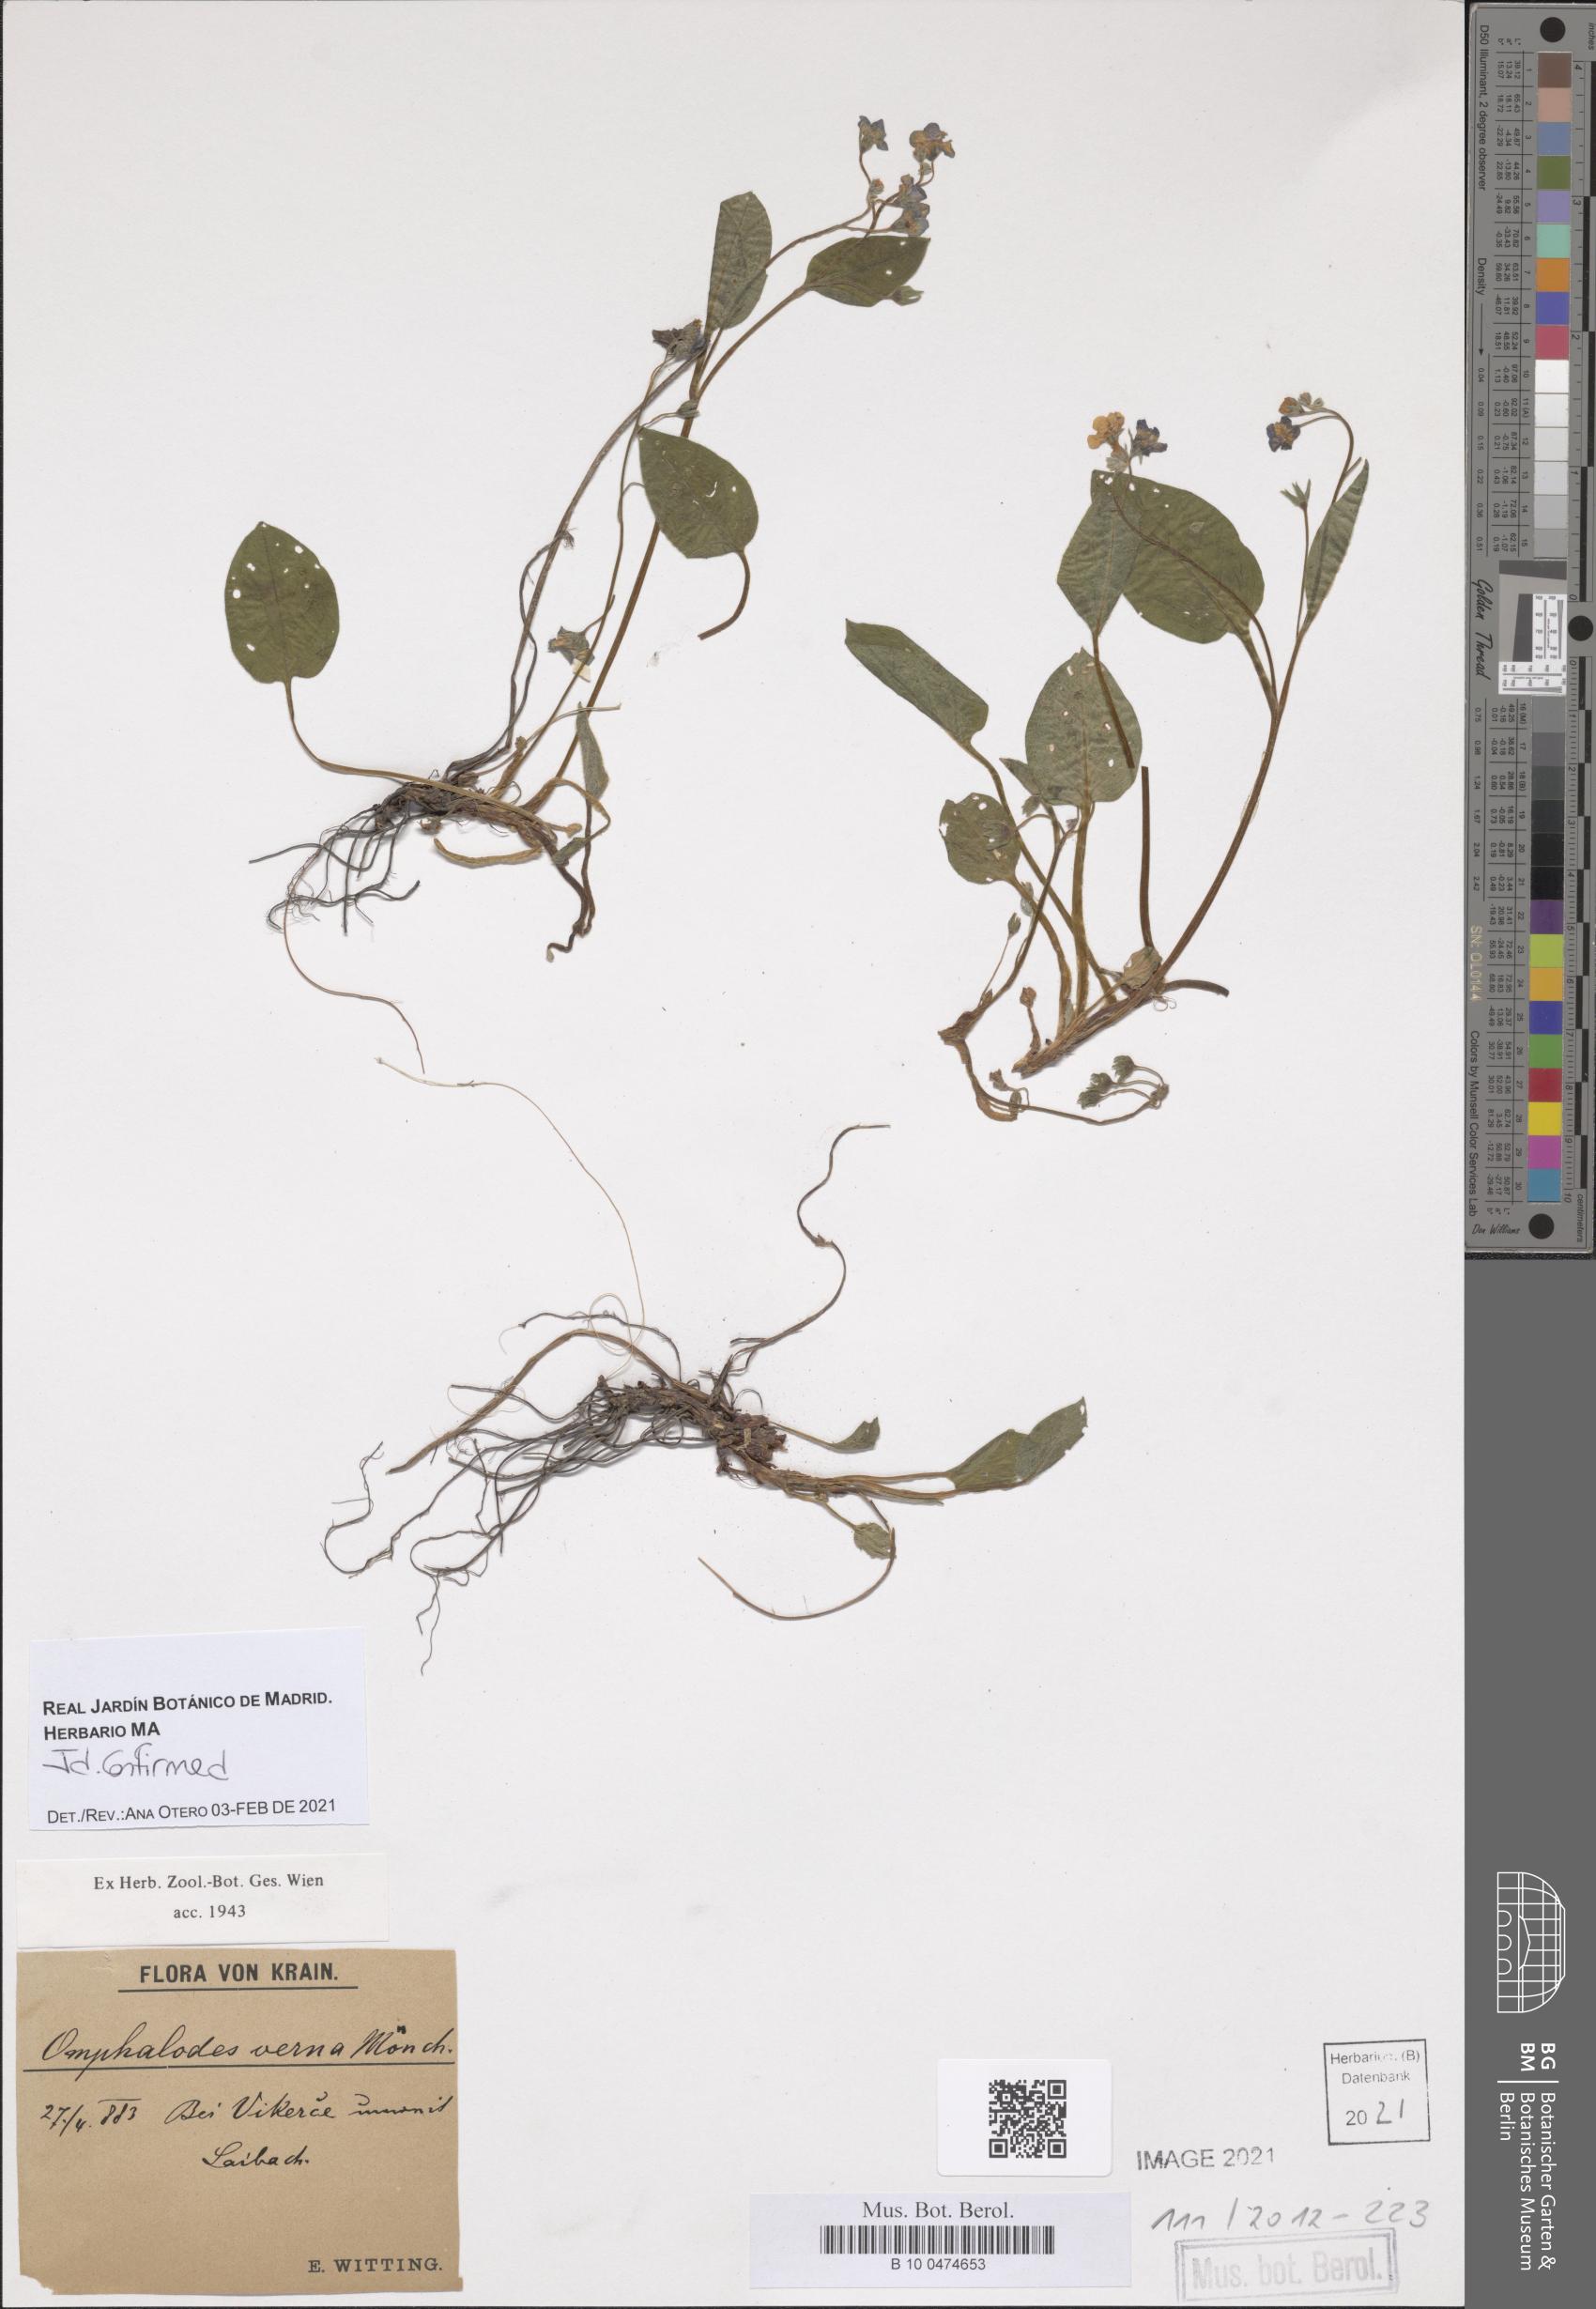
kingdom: Plantae
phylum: Tracheophyta
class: Magnoliopsida
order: Boraginales
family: Boraginaceae
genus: Omphalodes
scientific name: Omphalodes verna
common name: Blue-eyed-mary
